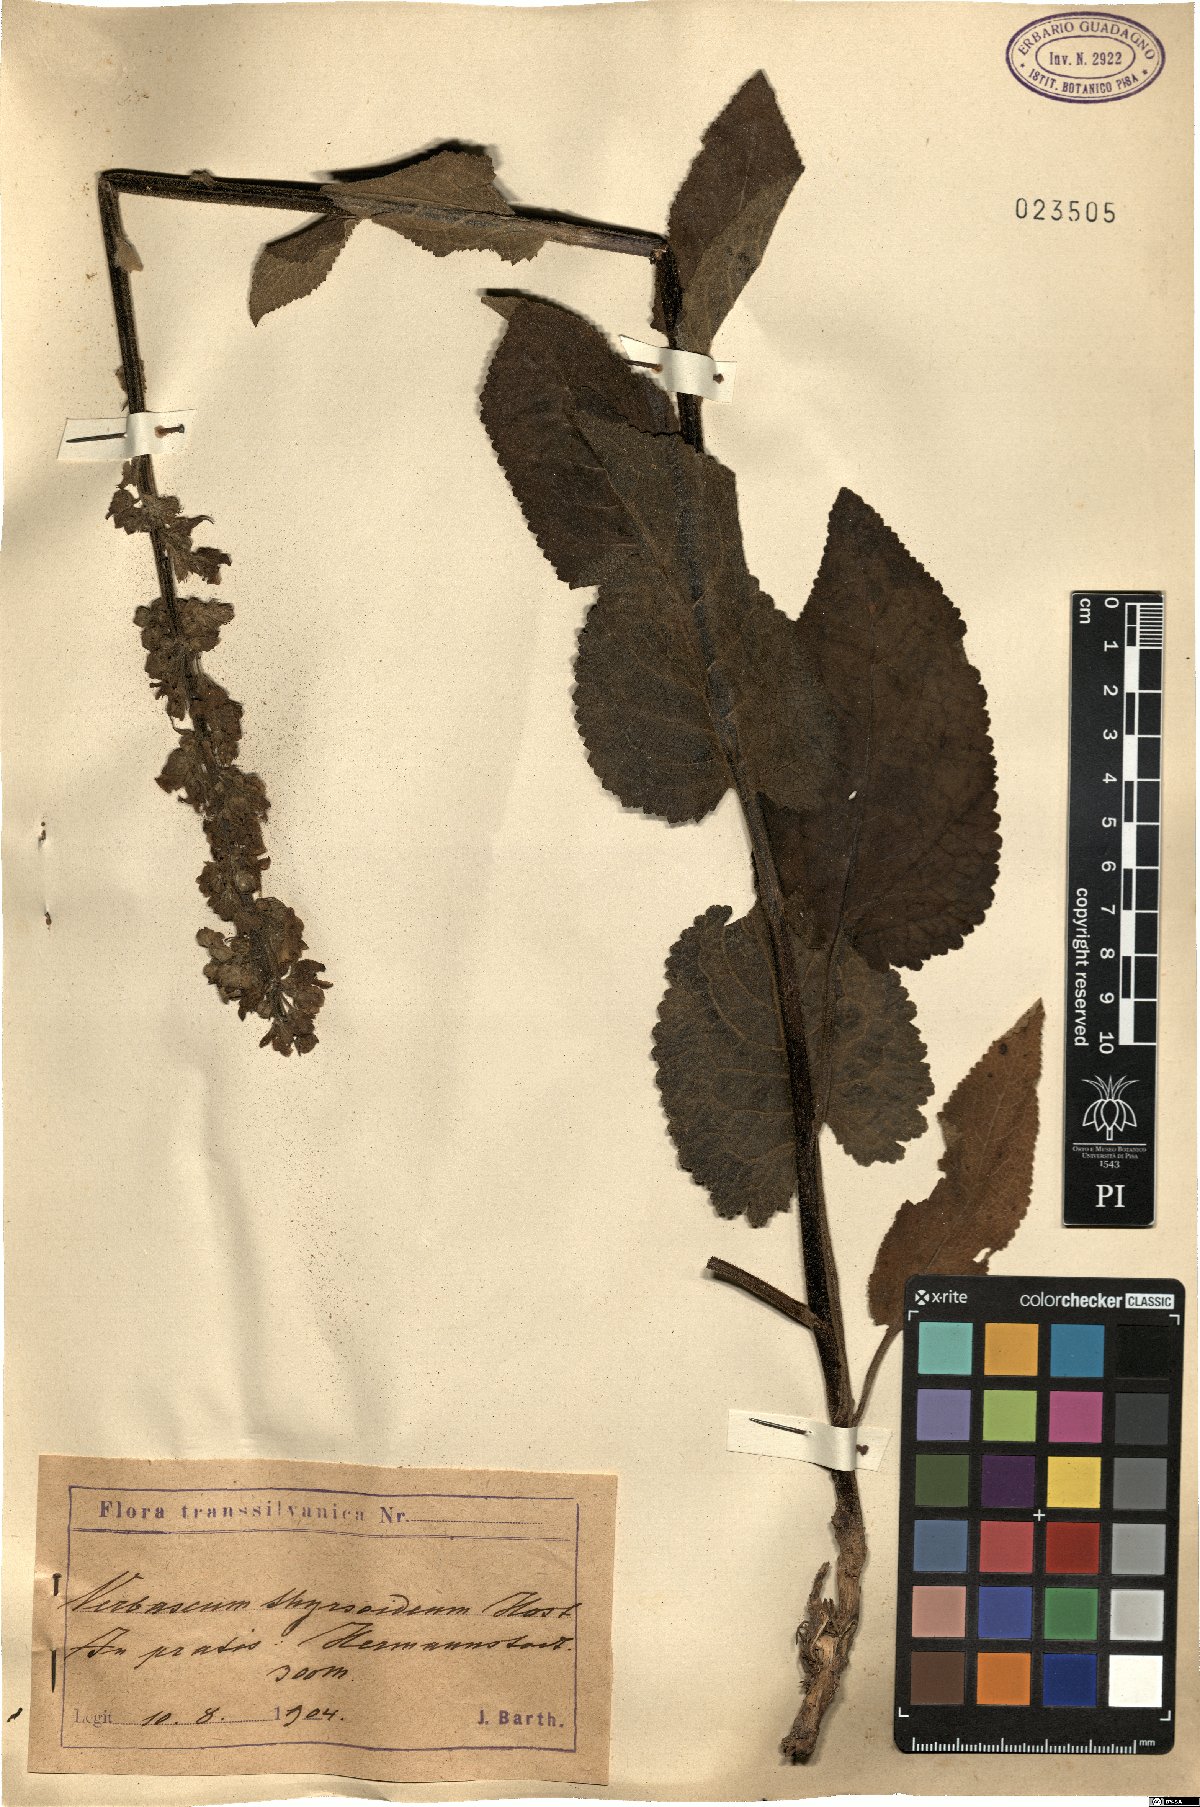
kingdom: Plantae
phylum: Tracheophyta
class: Magnoliopsida
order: Lamiales
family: Scrophulariaceae
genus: Verbascum
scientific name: Verbascum nigrum
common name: Dark mullein
